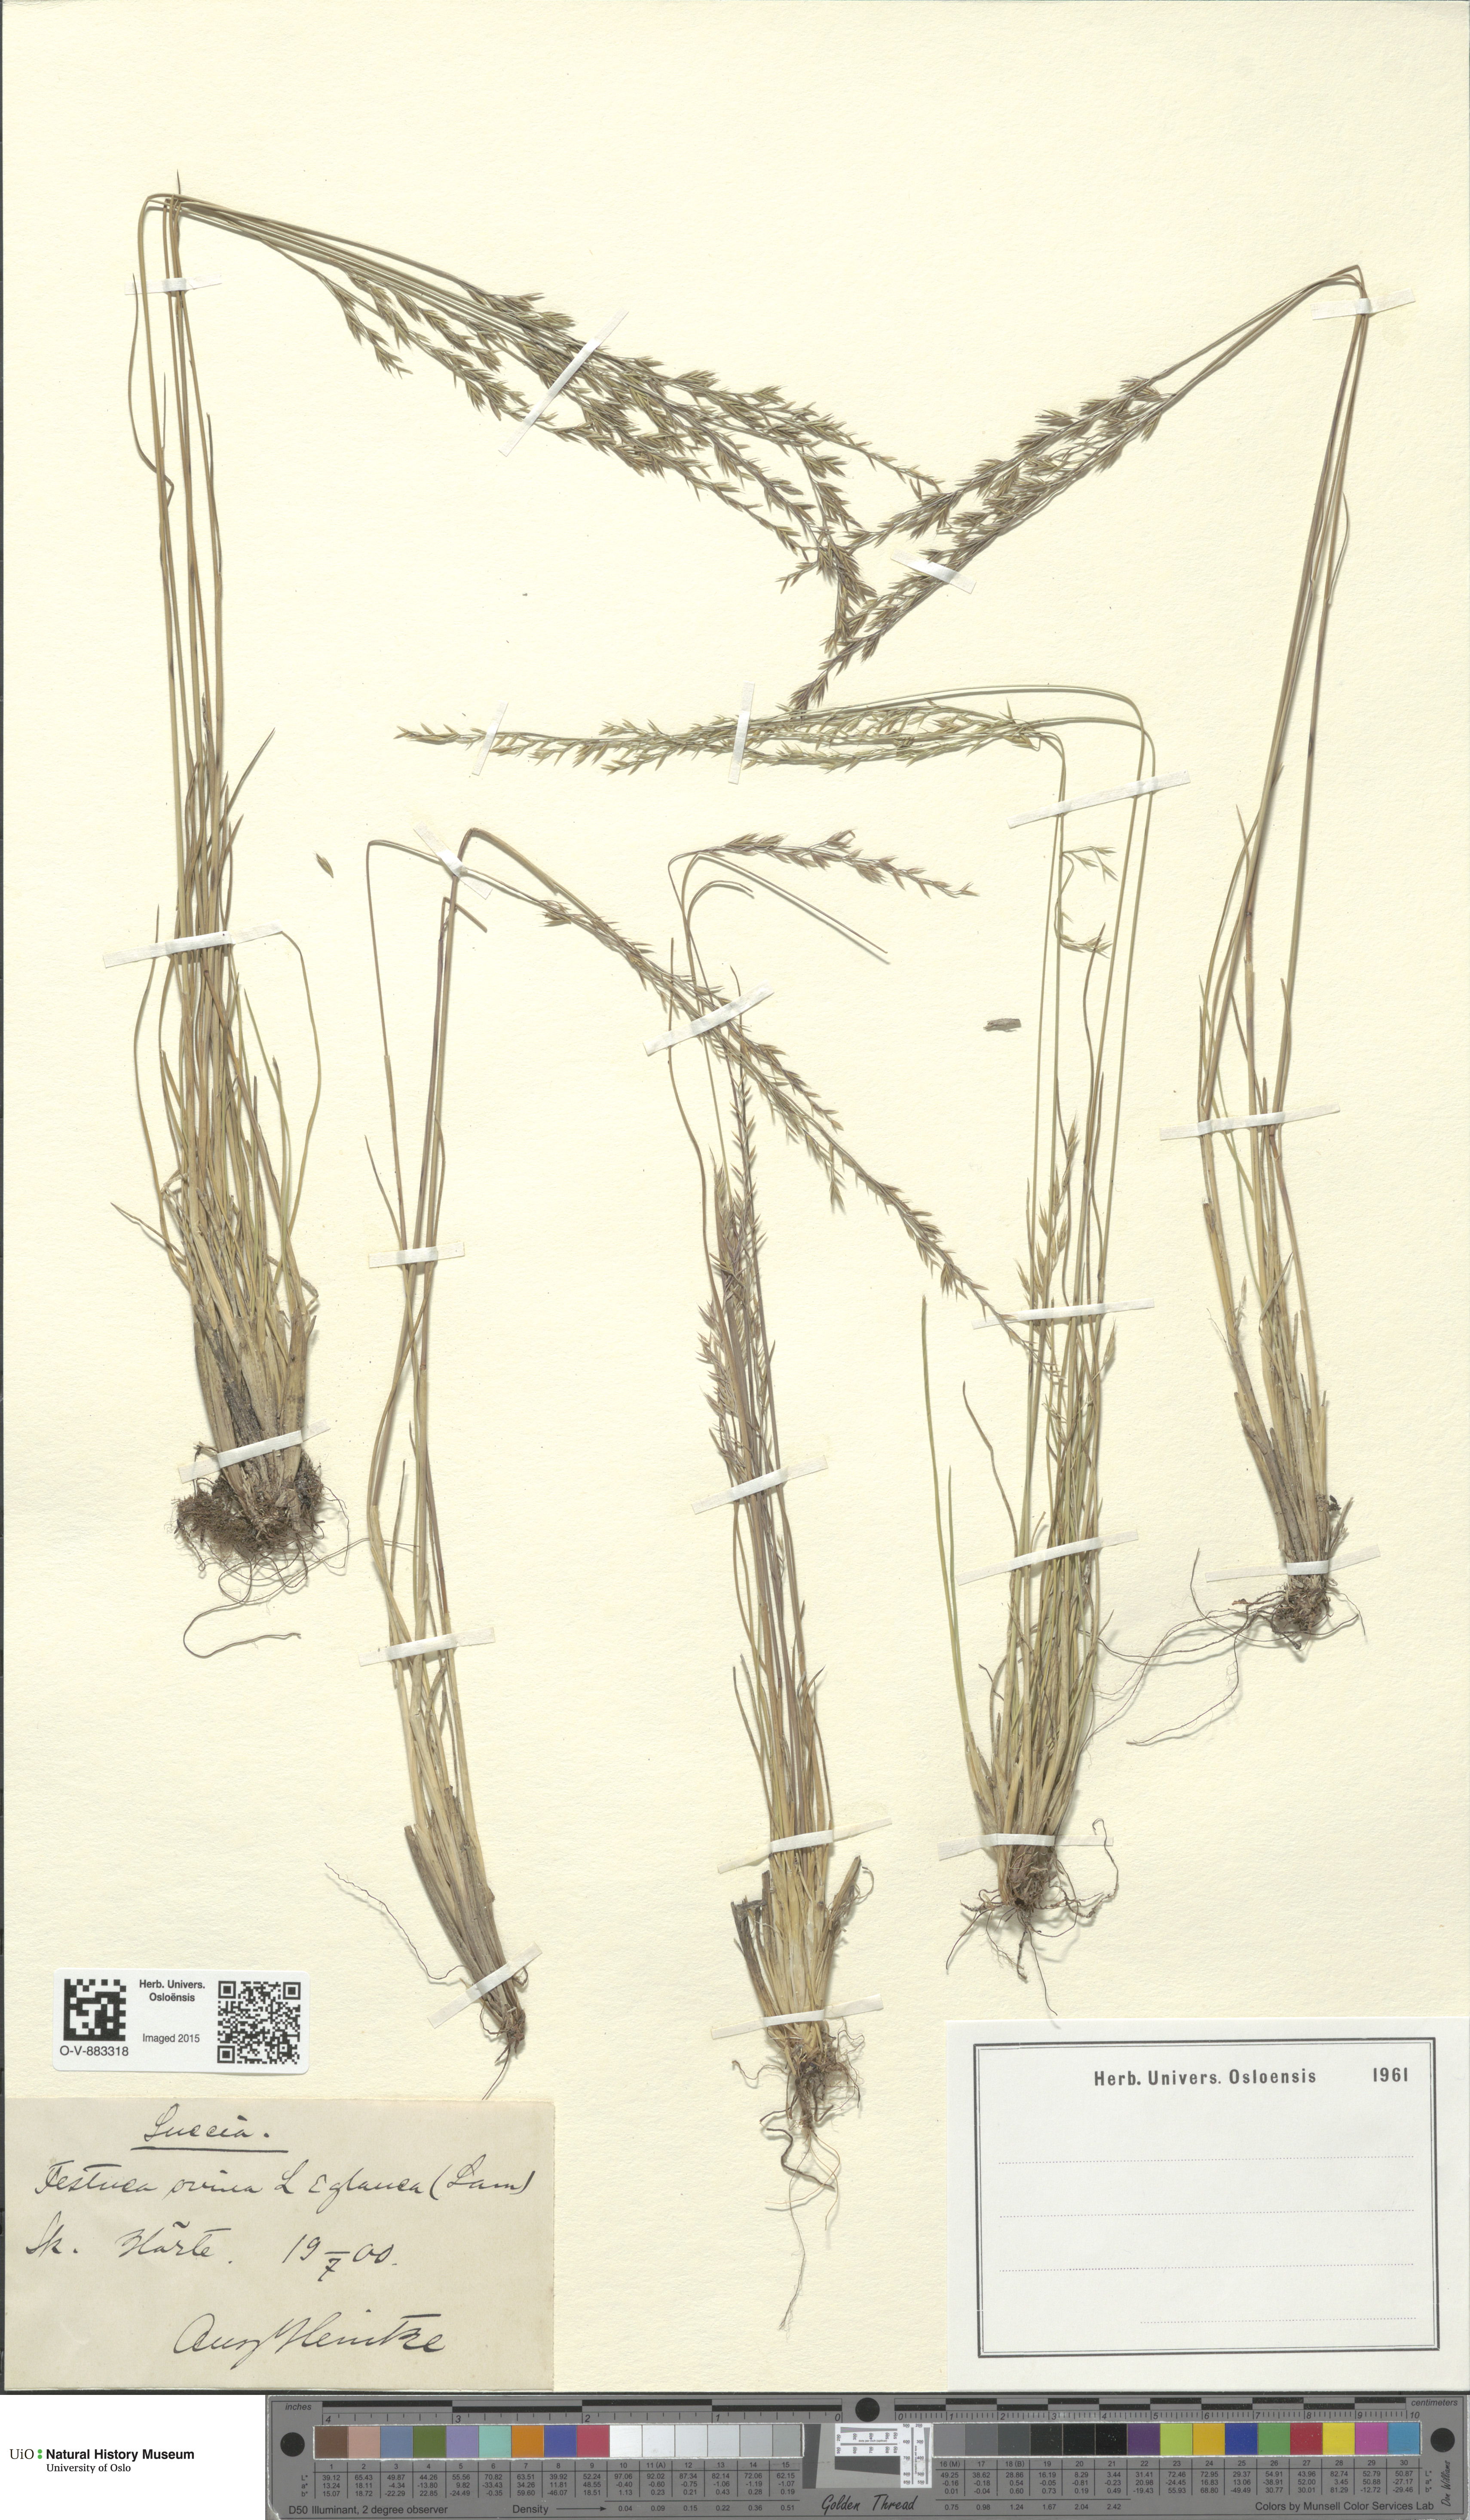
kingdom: Plantae
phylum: Tracheophyta
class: Liliopsida
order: Poales
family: Poaceae
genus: Festuca
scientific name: Festuca ovina
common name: Sheep fescue
